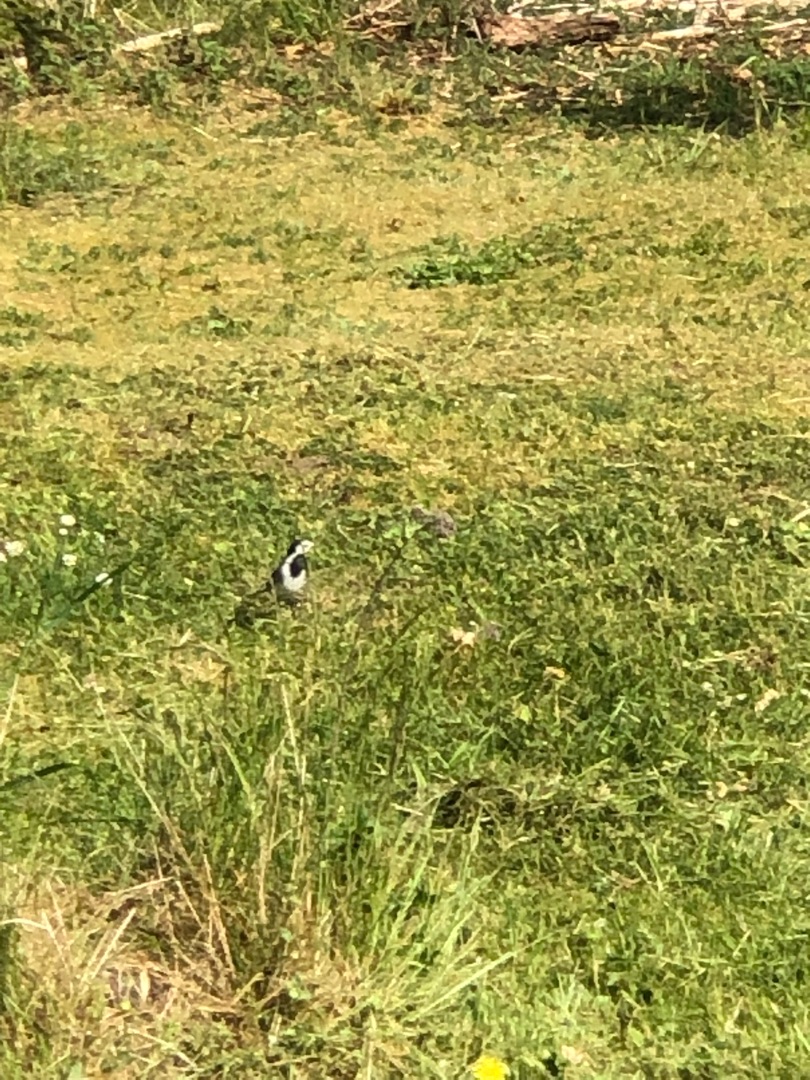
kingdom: Animalia
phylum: Chordata
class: Aves
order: Passeriformes
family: Motacillidae
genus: Motacilla
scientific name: Motacilla alba
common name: Hvid vipstjert
